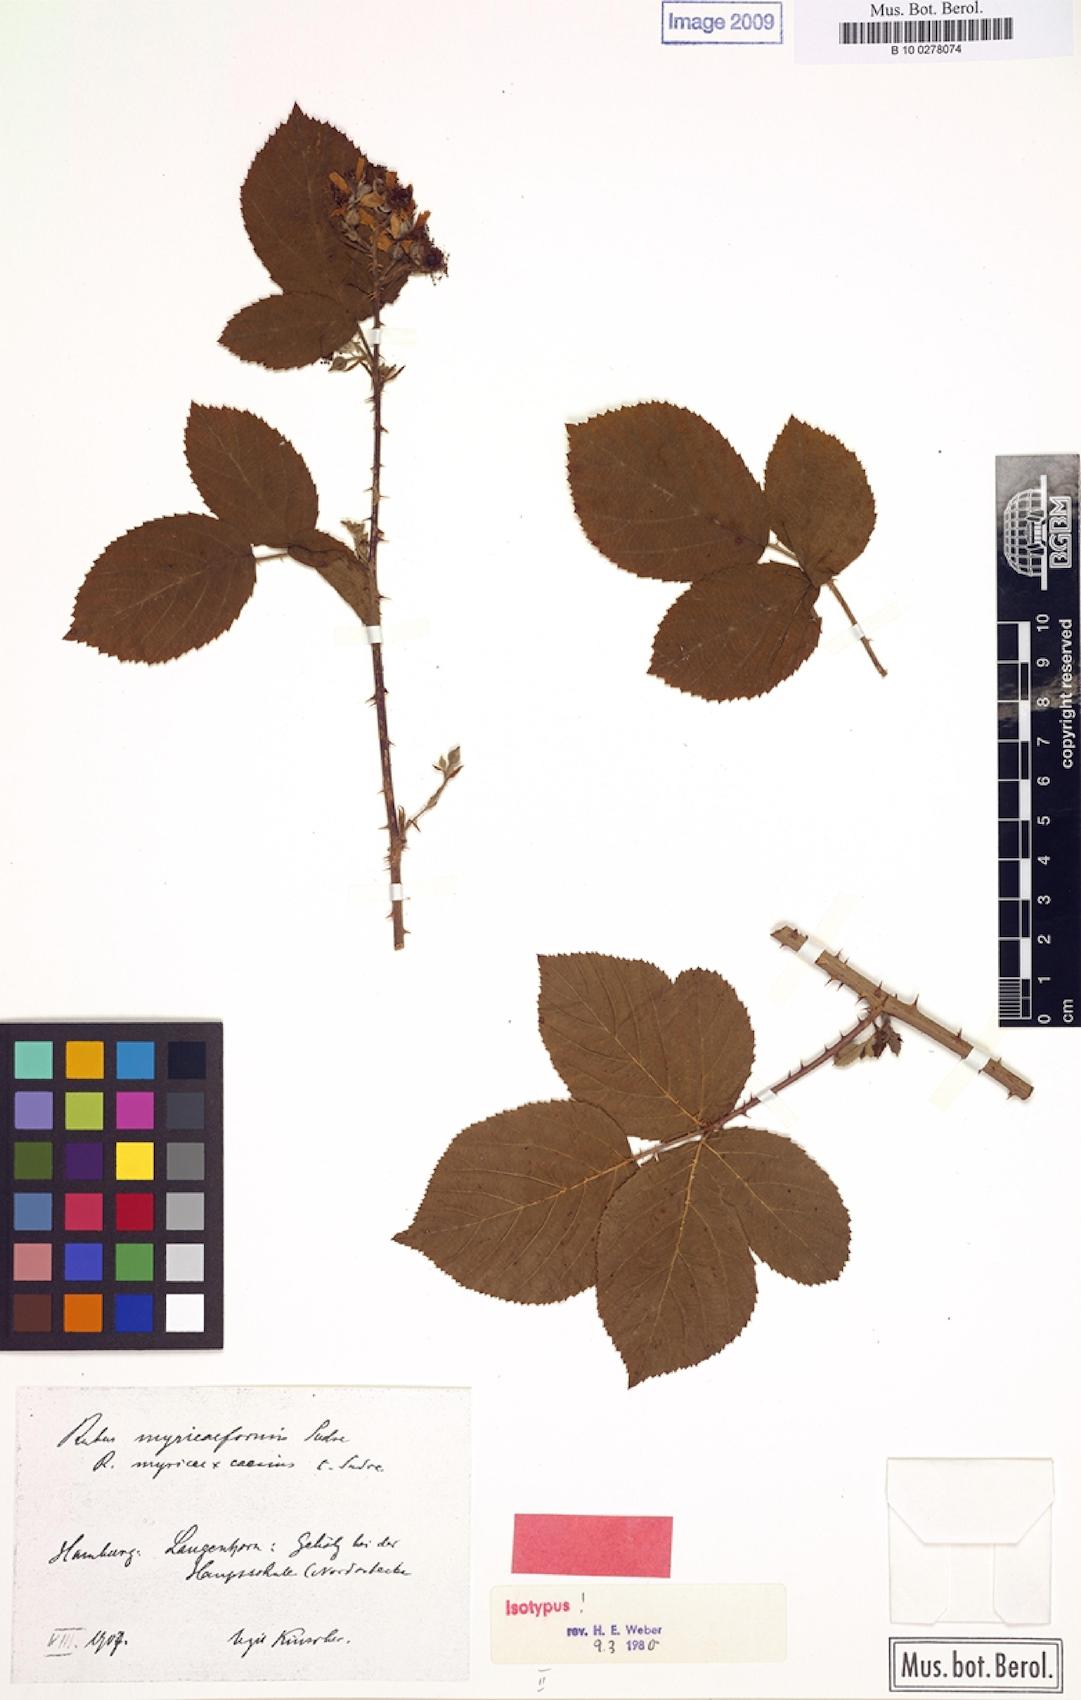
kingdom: Plantae
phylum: Tracheophyta
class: Magnoliopsida
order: Rosales
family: Rosaceae
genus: Rubus
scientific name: Rubus lamprocaulos
